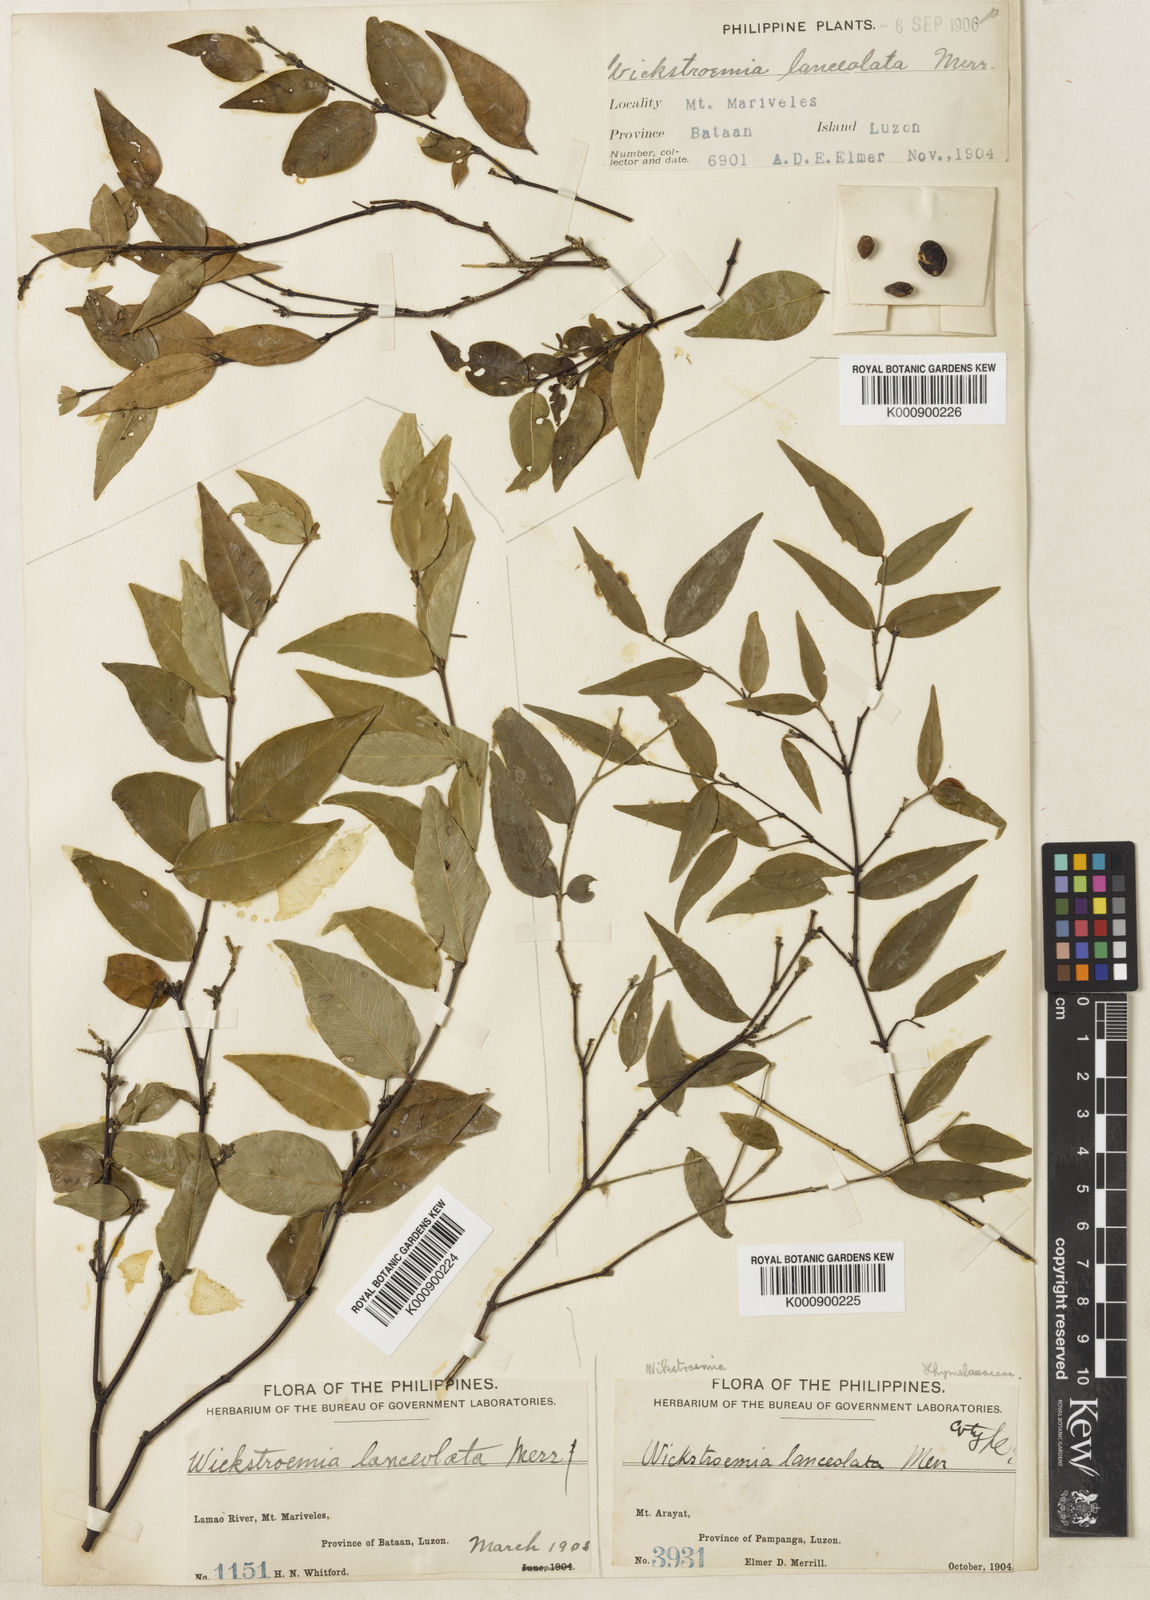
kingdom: Plantae
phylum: Tracheophyta
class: Magnoliopsida
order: Malvales
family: Thymelaeaceae
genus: Wikstroemia
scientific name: Wikstroemia lanceolata
